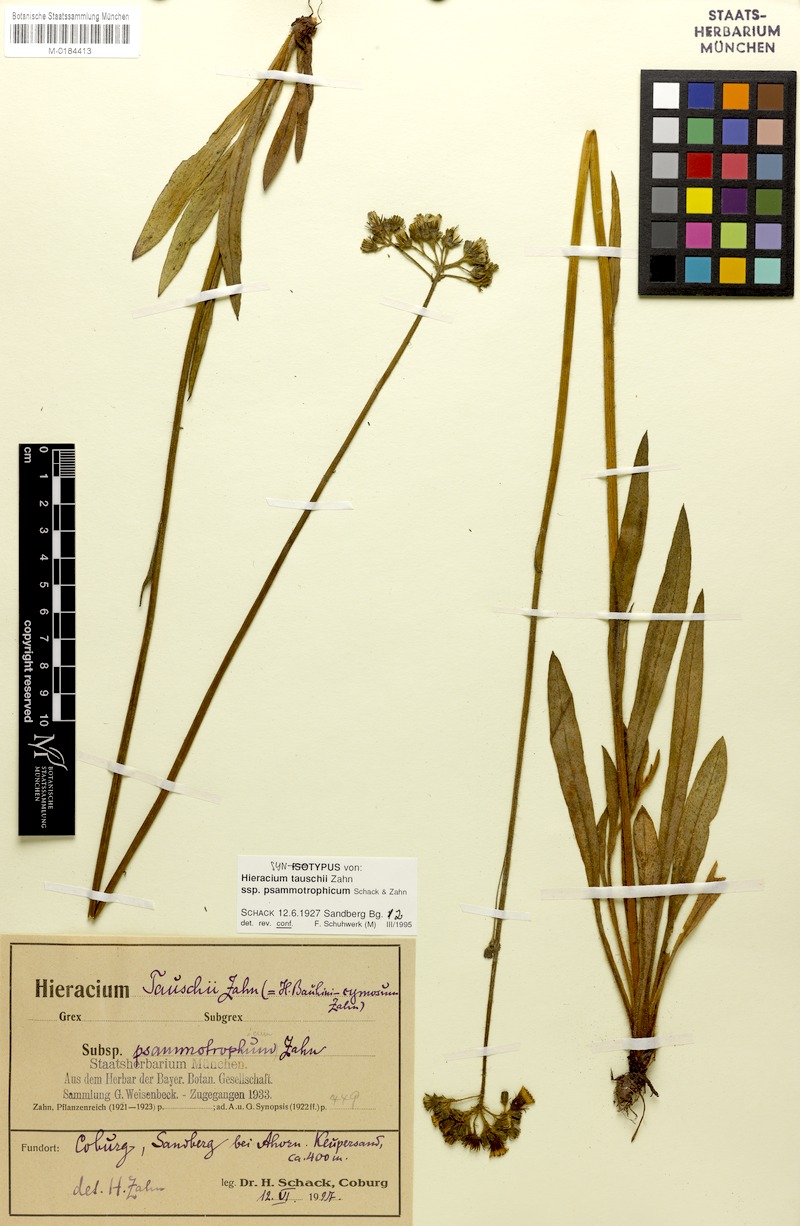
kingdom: Plantae
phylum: Tracheophyta
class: Magnoliopsida
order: Asterales
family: Asteraceae
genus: Pilosella
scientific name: Pilosella densiflora
